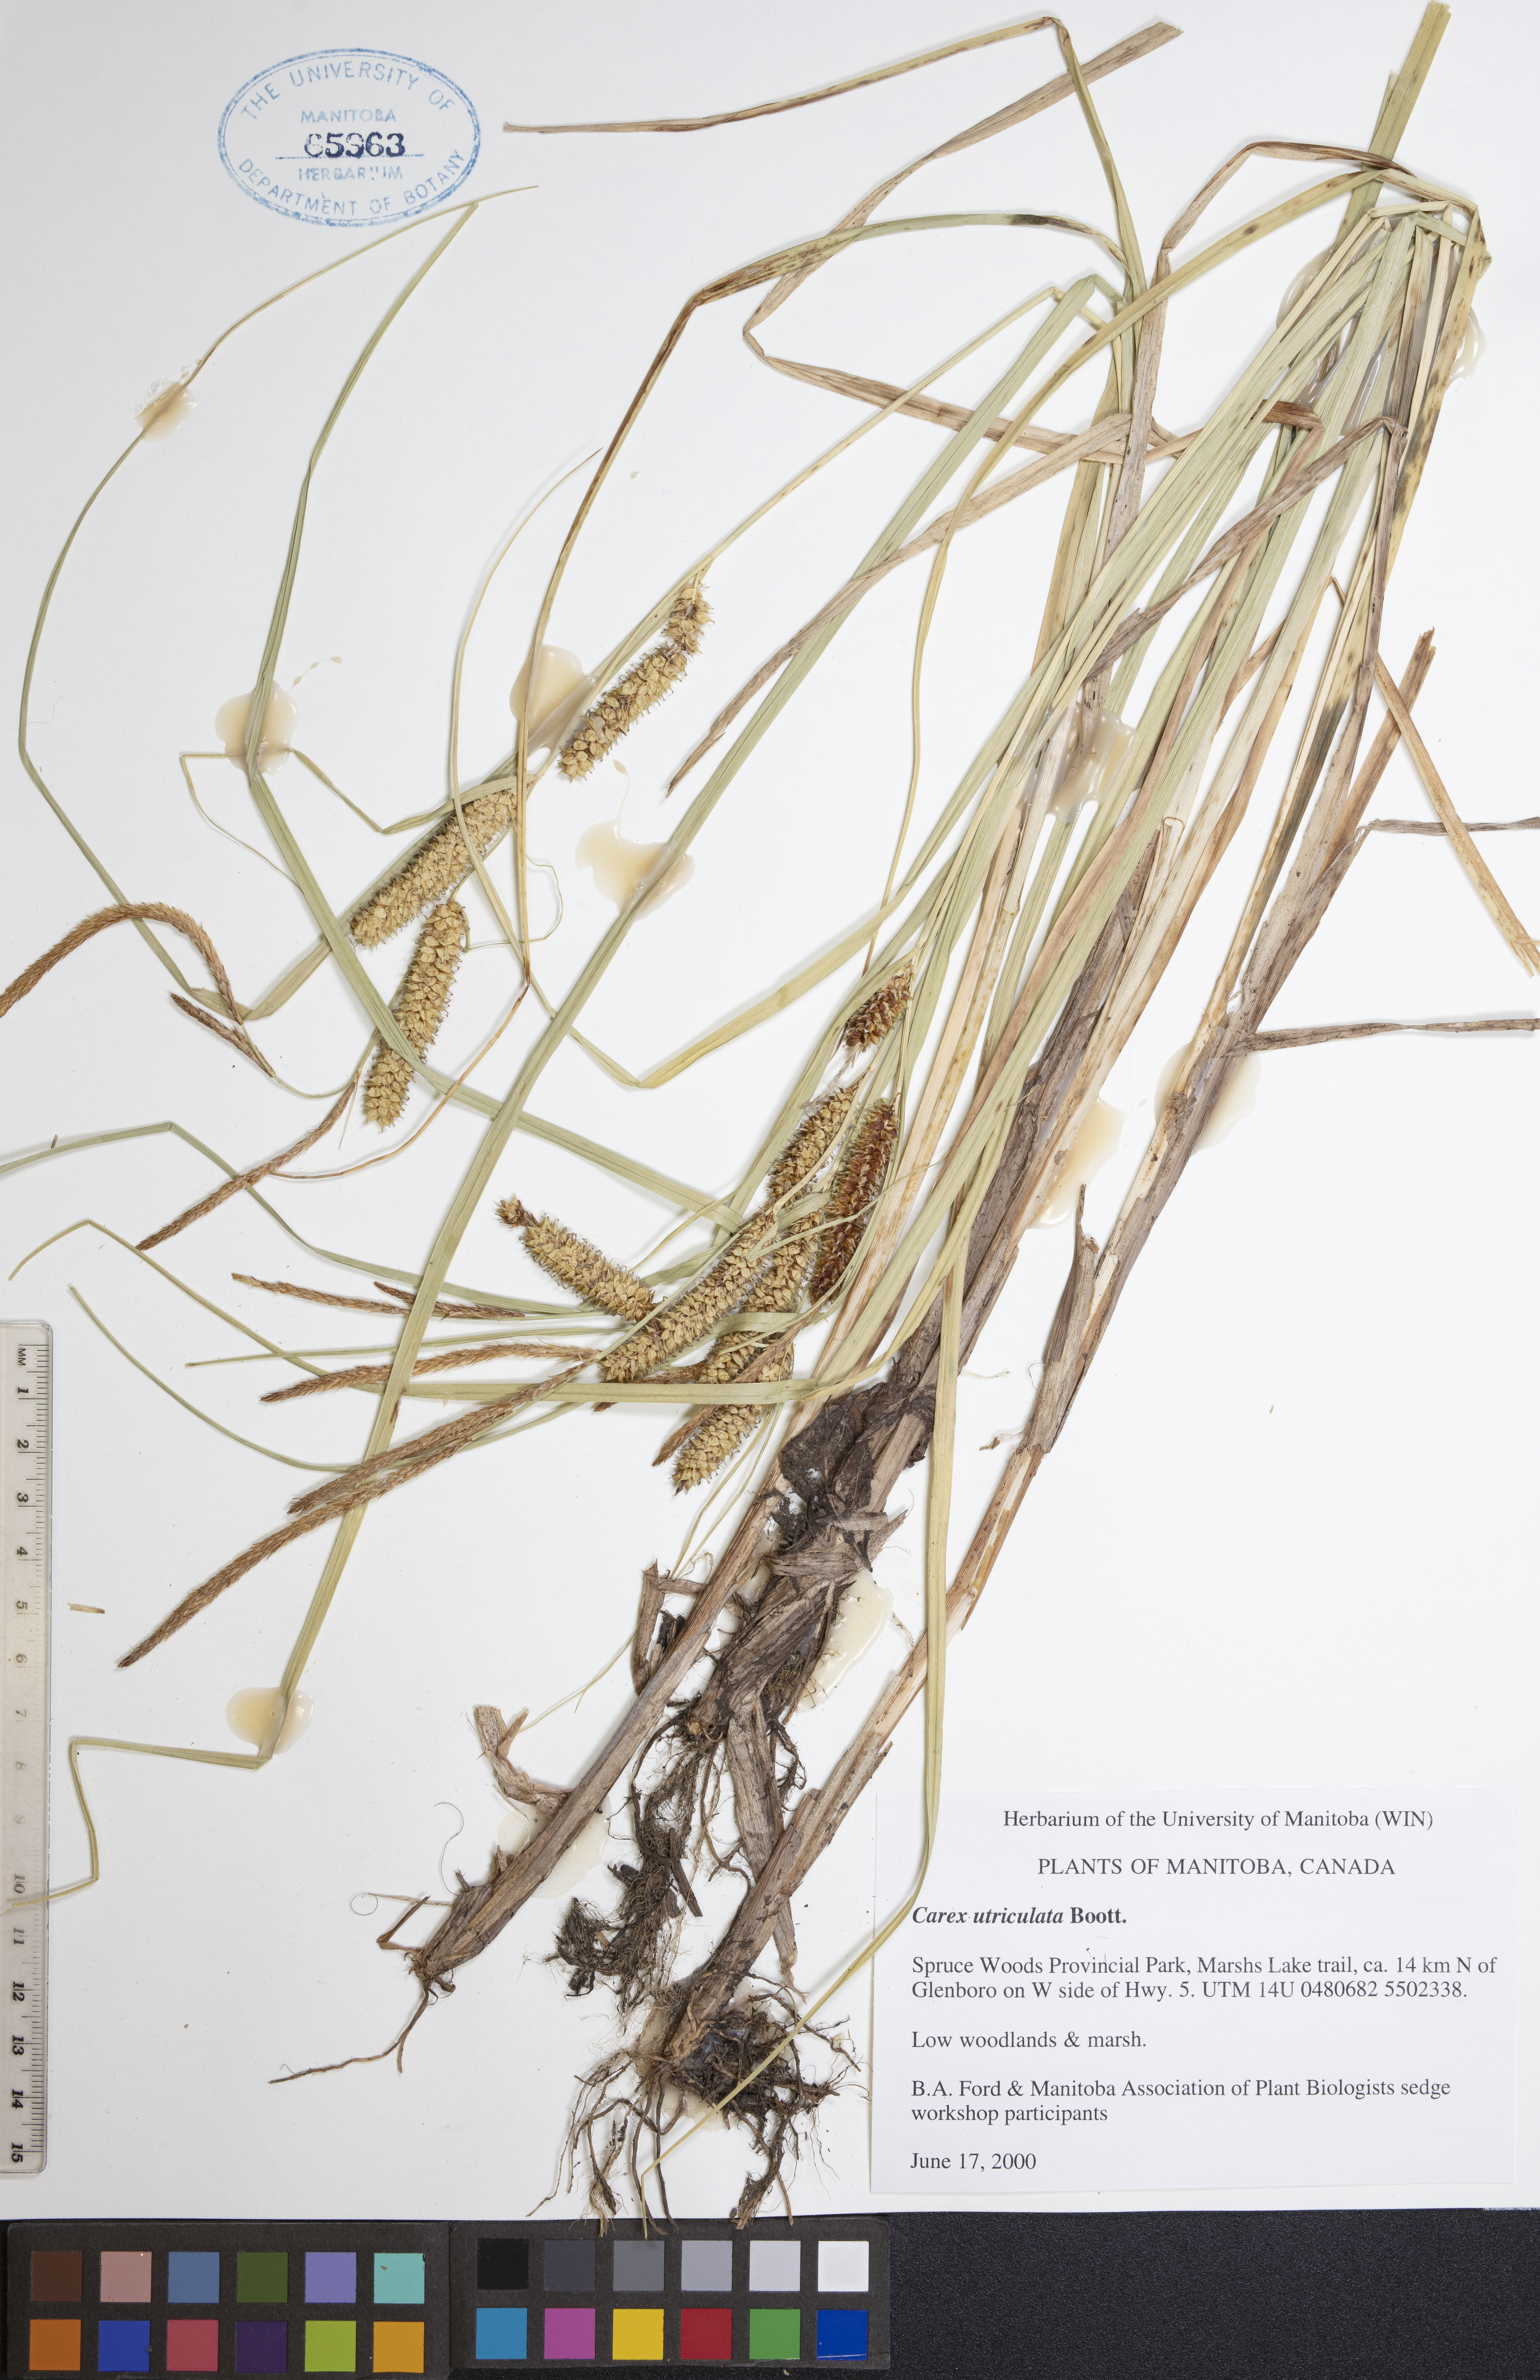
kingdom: Plantae
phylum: Tracheophyta
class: Liliopsida
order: Poales
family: Cyperaceae
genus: Carex
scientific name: Carex utriculata
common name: Beaked sedge
